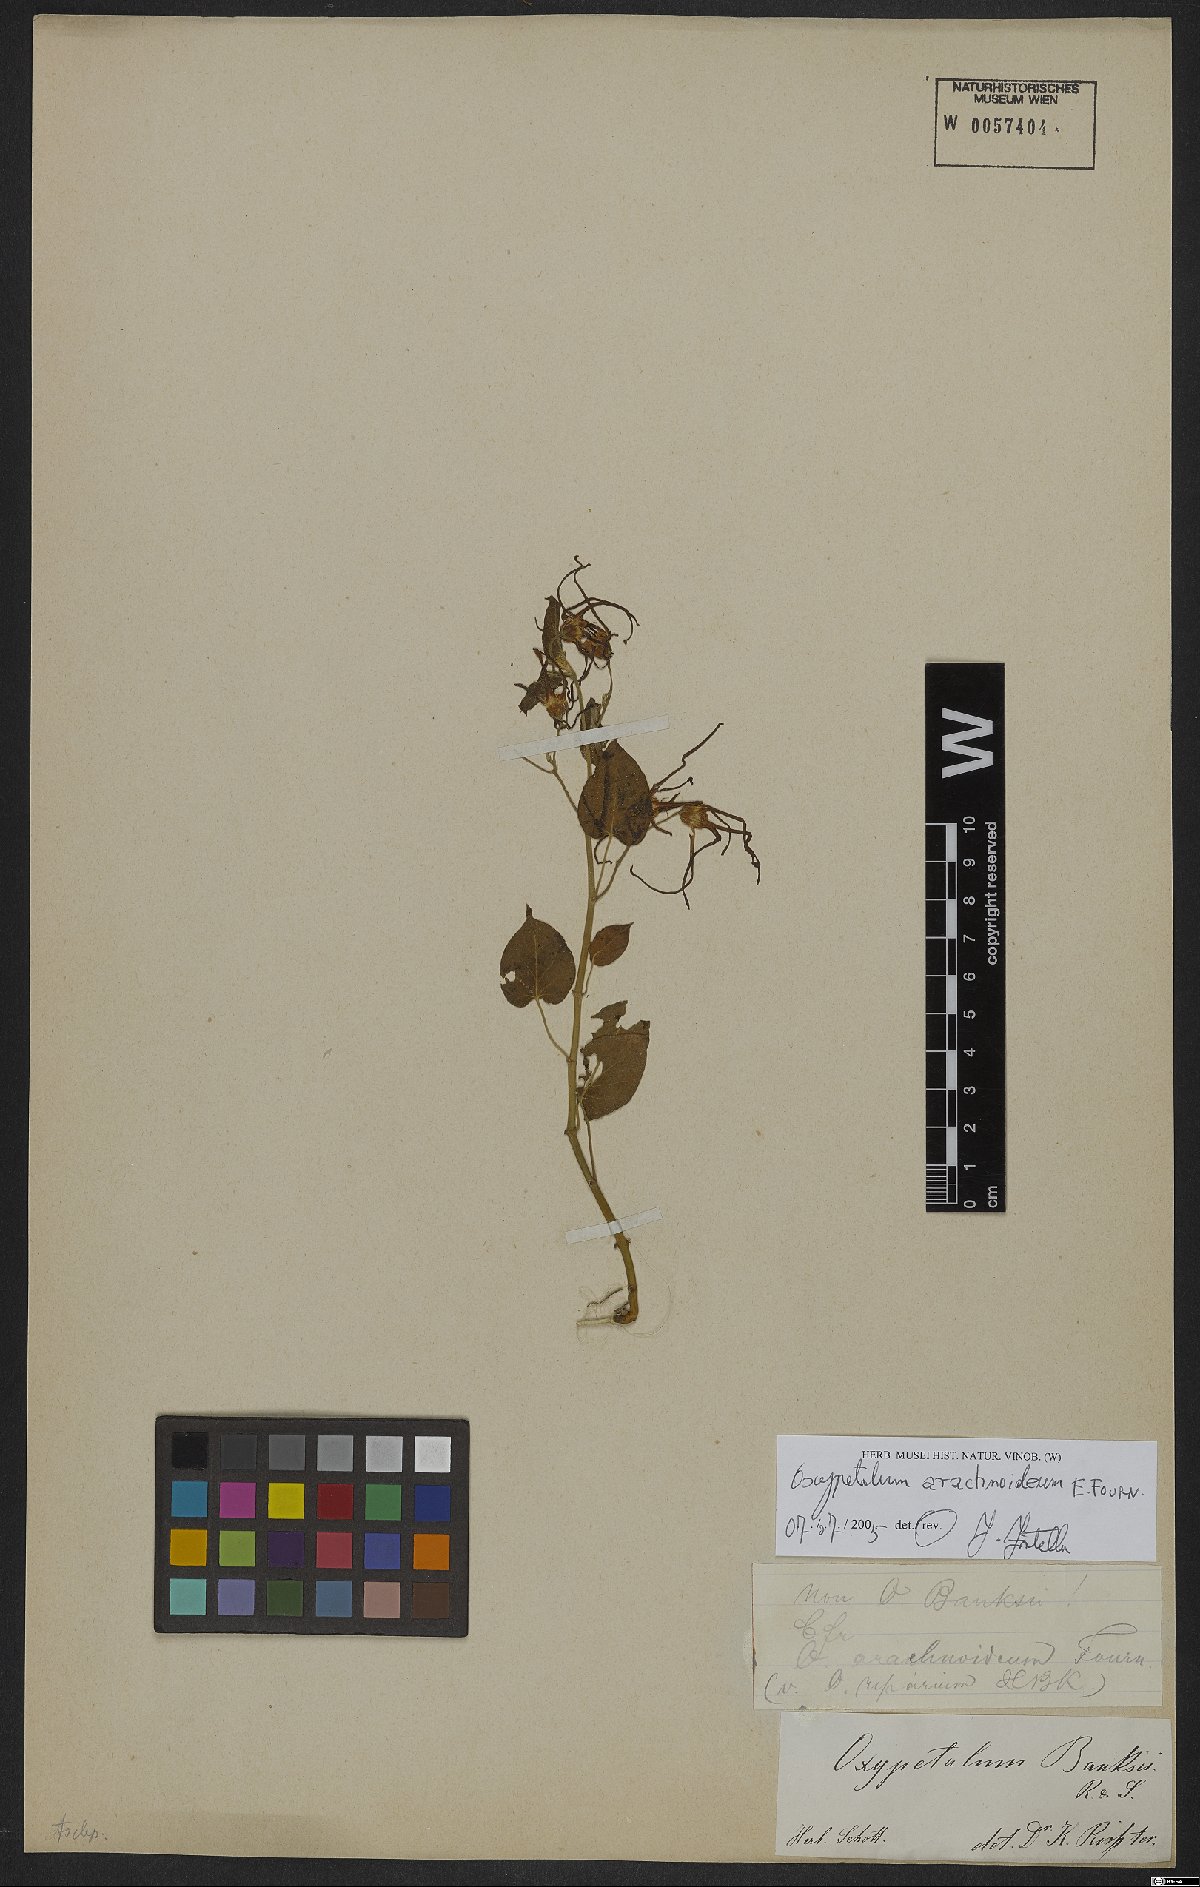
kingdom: Plantae
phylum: Tracheophyta
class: Magnoliopsida
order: Gentianales
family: Apocynaceae
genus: Oxypetalum
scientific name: Oxypetalum arachnoideum
